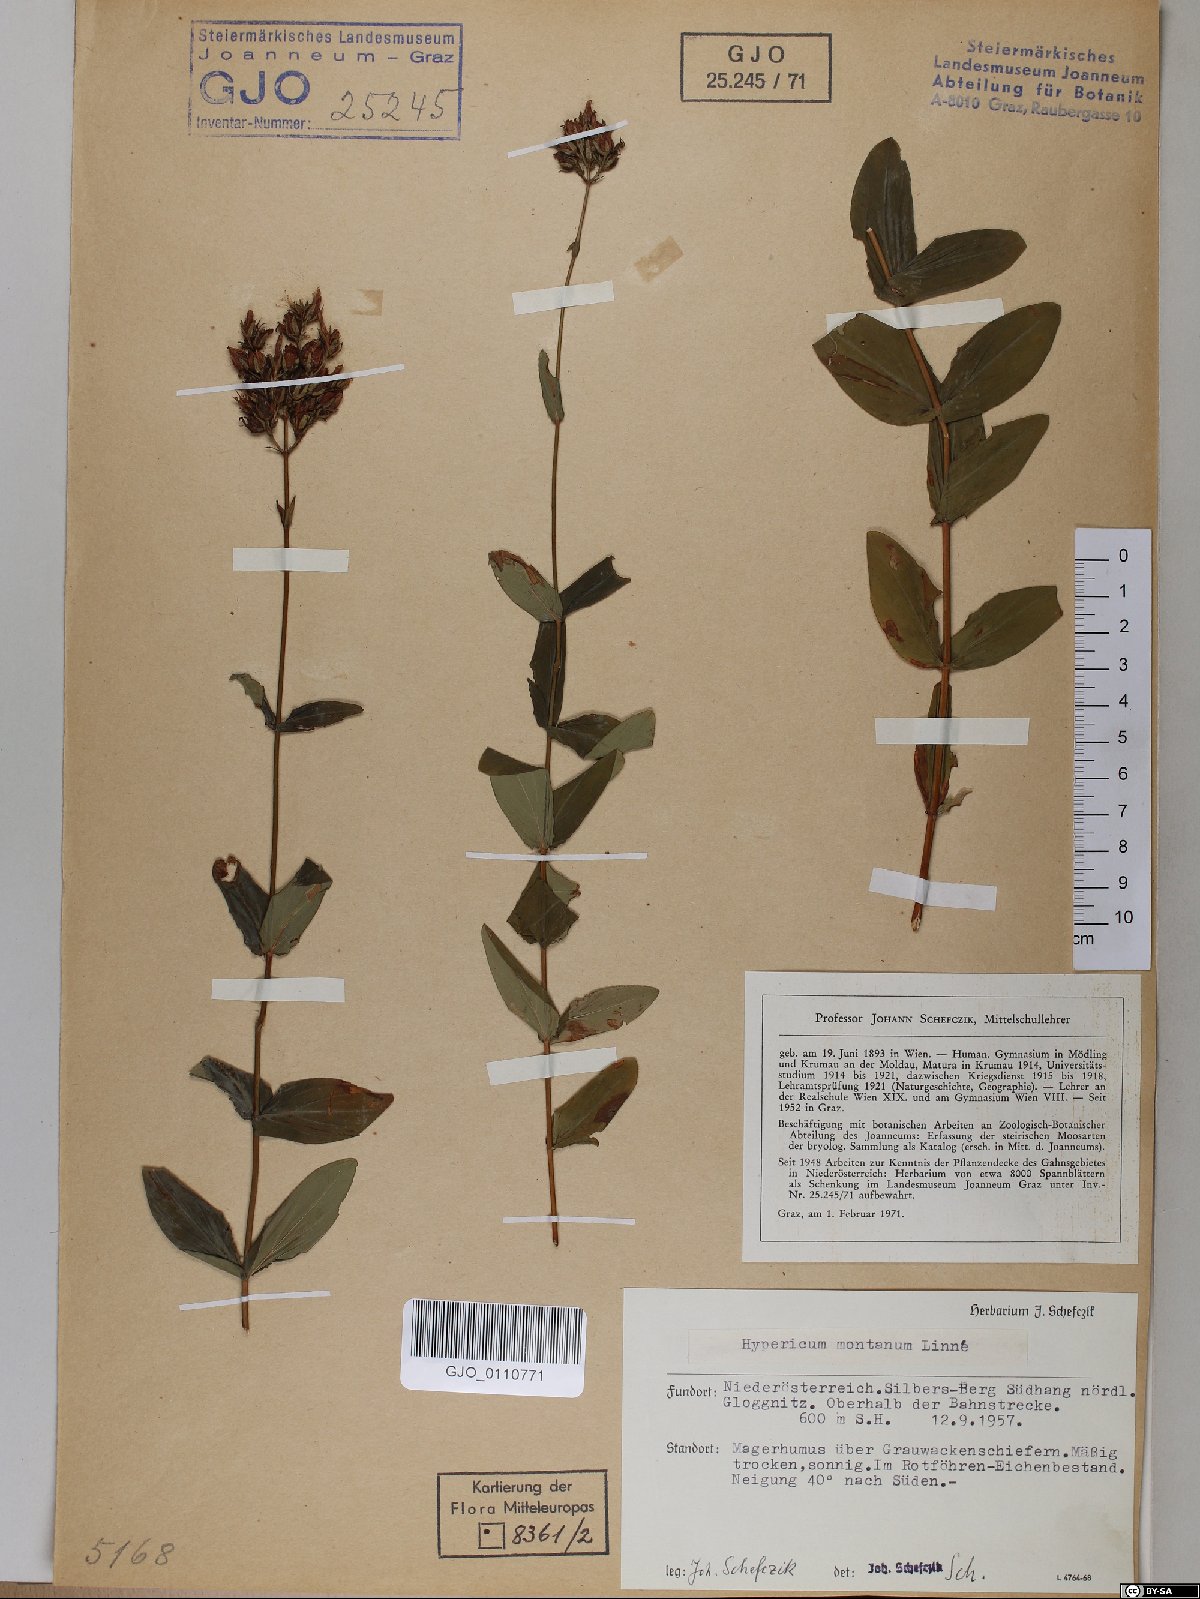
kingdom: Plantae
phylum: Tracheophyta
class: Magnoliopsida
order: Malpighiales
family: Hypericaceae
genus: Hypericum
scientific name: Hypericum montanum
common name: Pale st. john's-wort
